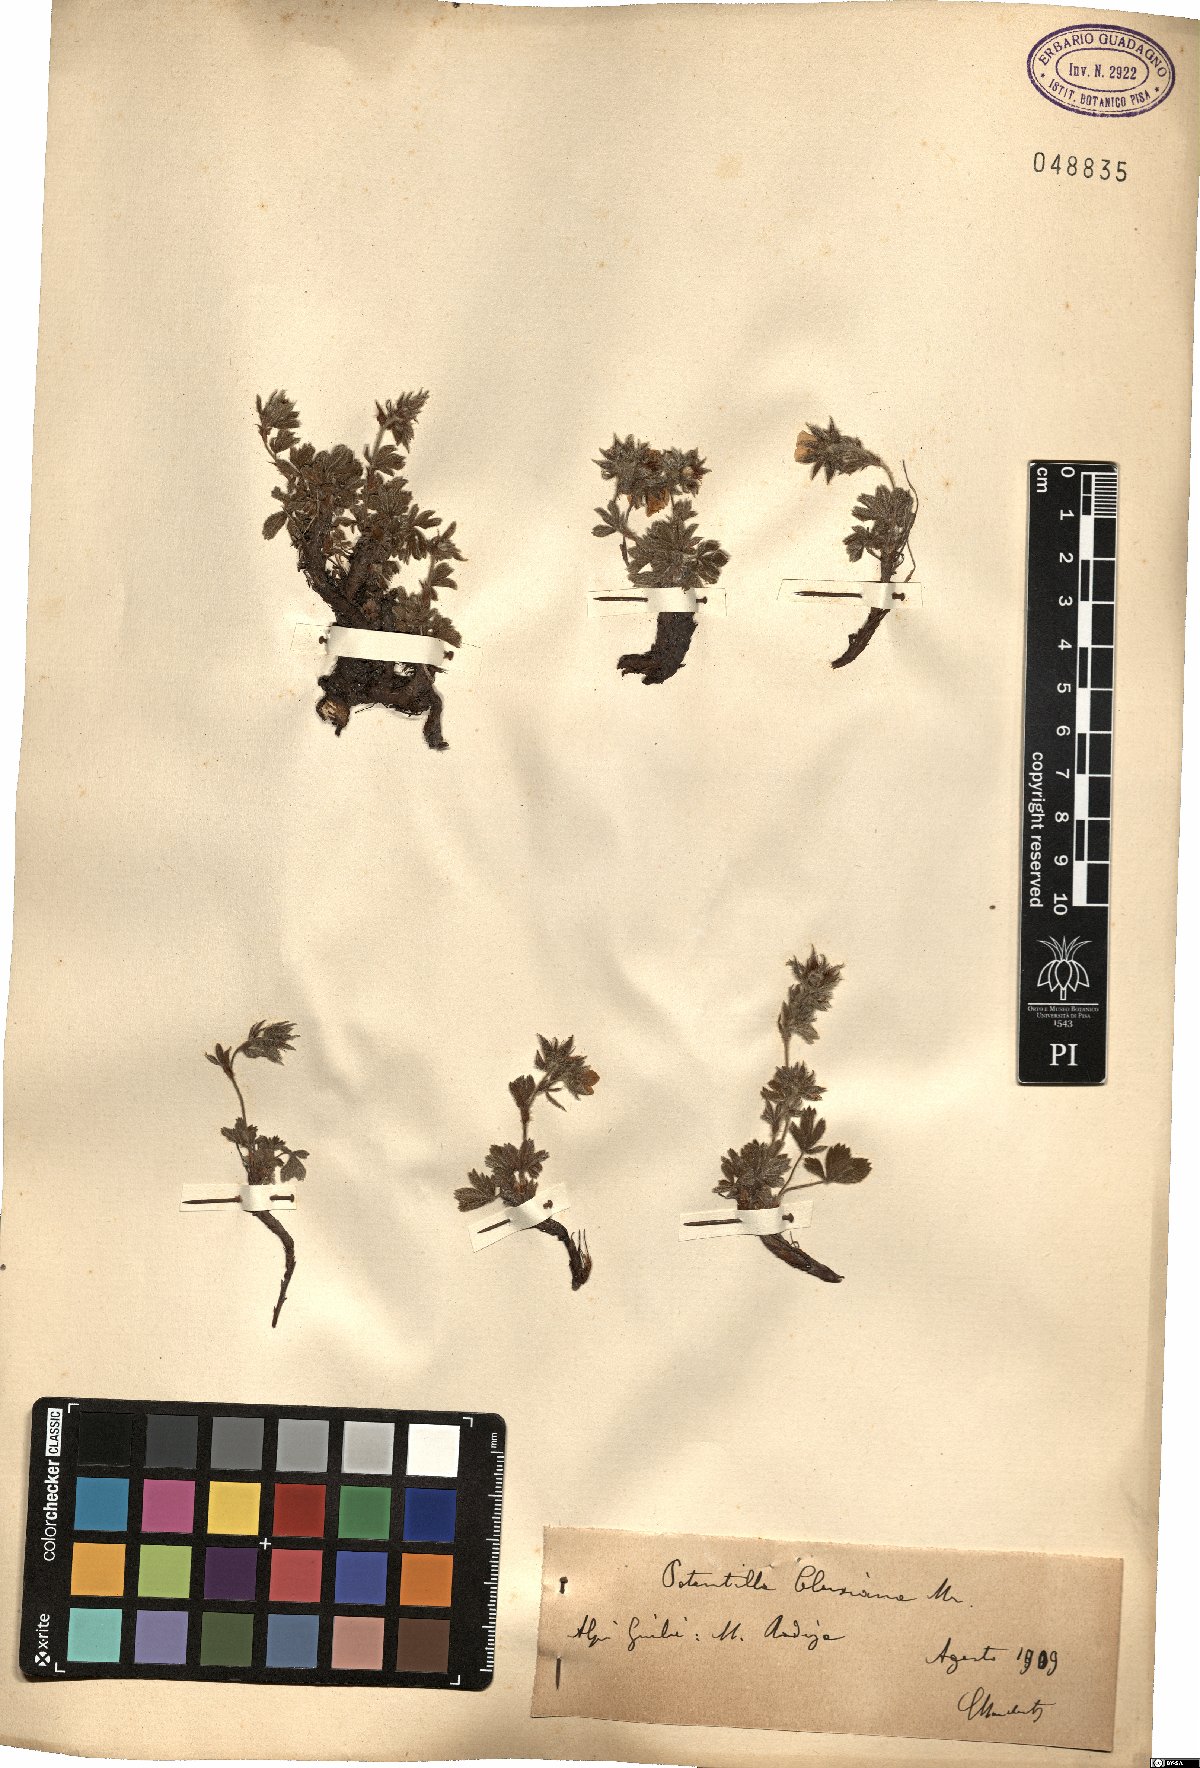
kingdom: Plantae
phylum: Tracheophyta
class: Magnoliopsida
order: Rosales
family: Rosaceae
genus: Potentilla
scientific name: Potentilla clusiana
